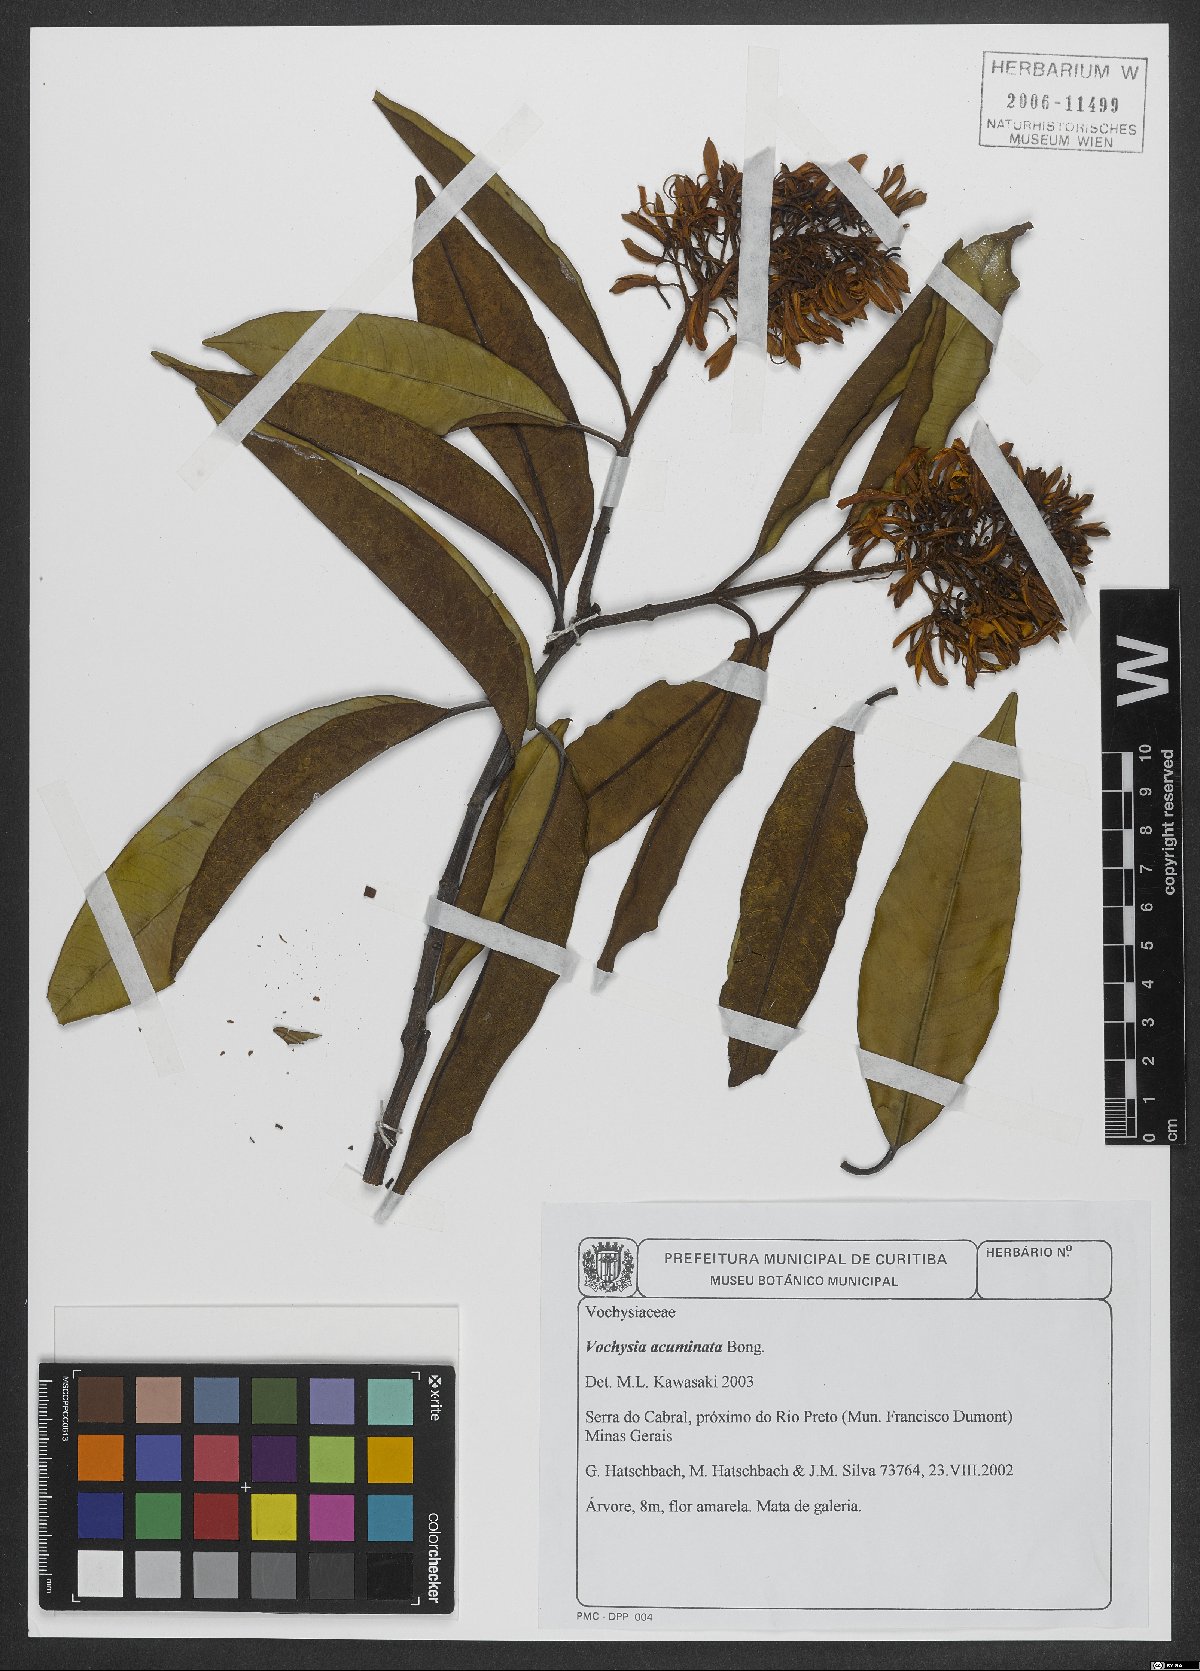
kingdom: Plantae
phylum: Tracheophyta
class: Magnoliopsida
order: Myrtales
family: Vochysiaceae
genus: Vochysia
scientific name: Vochysia acuminata
